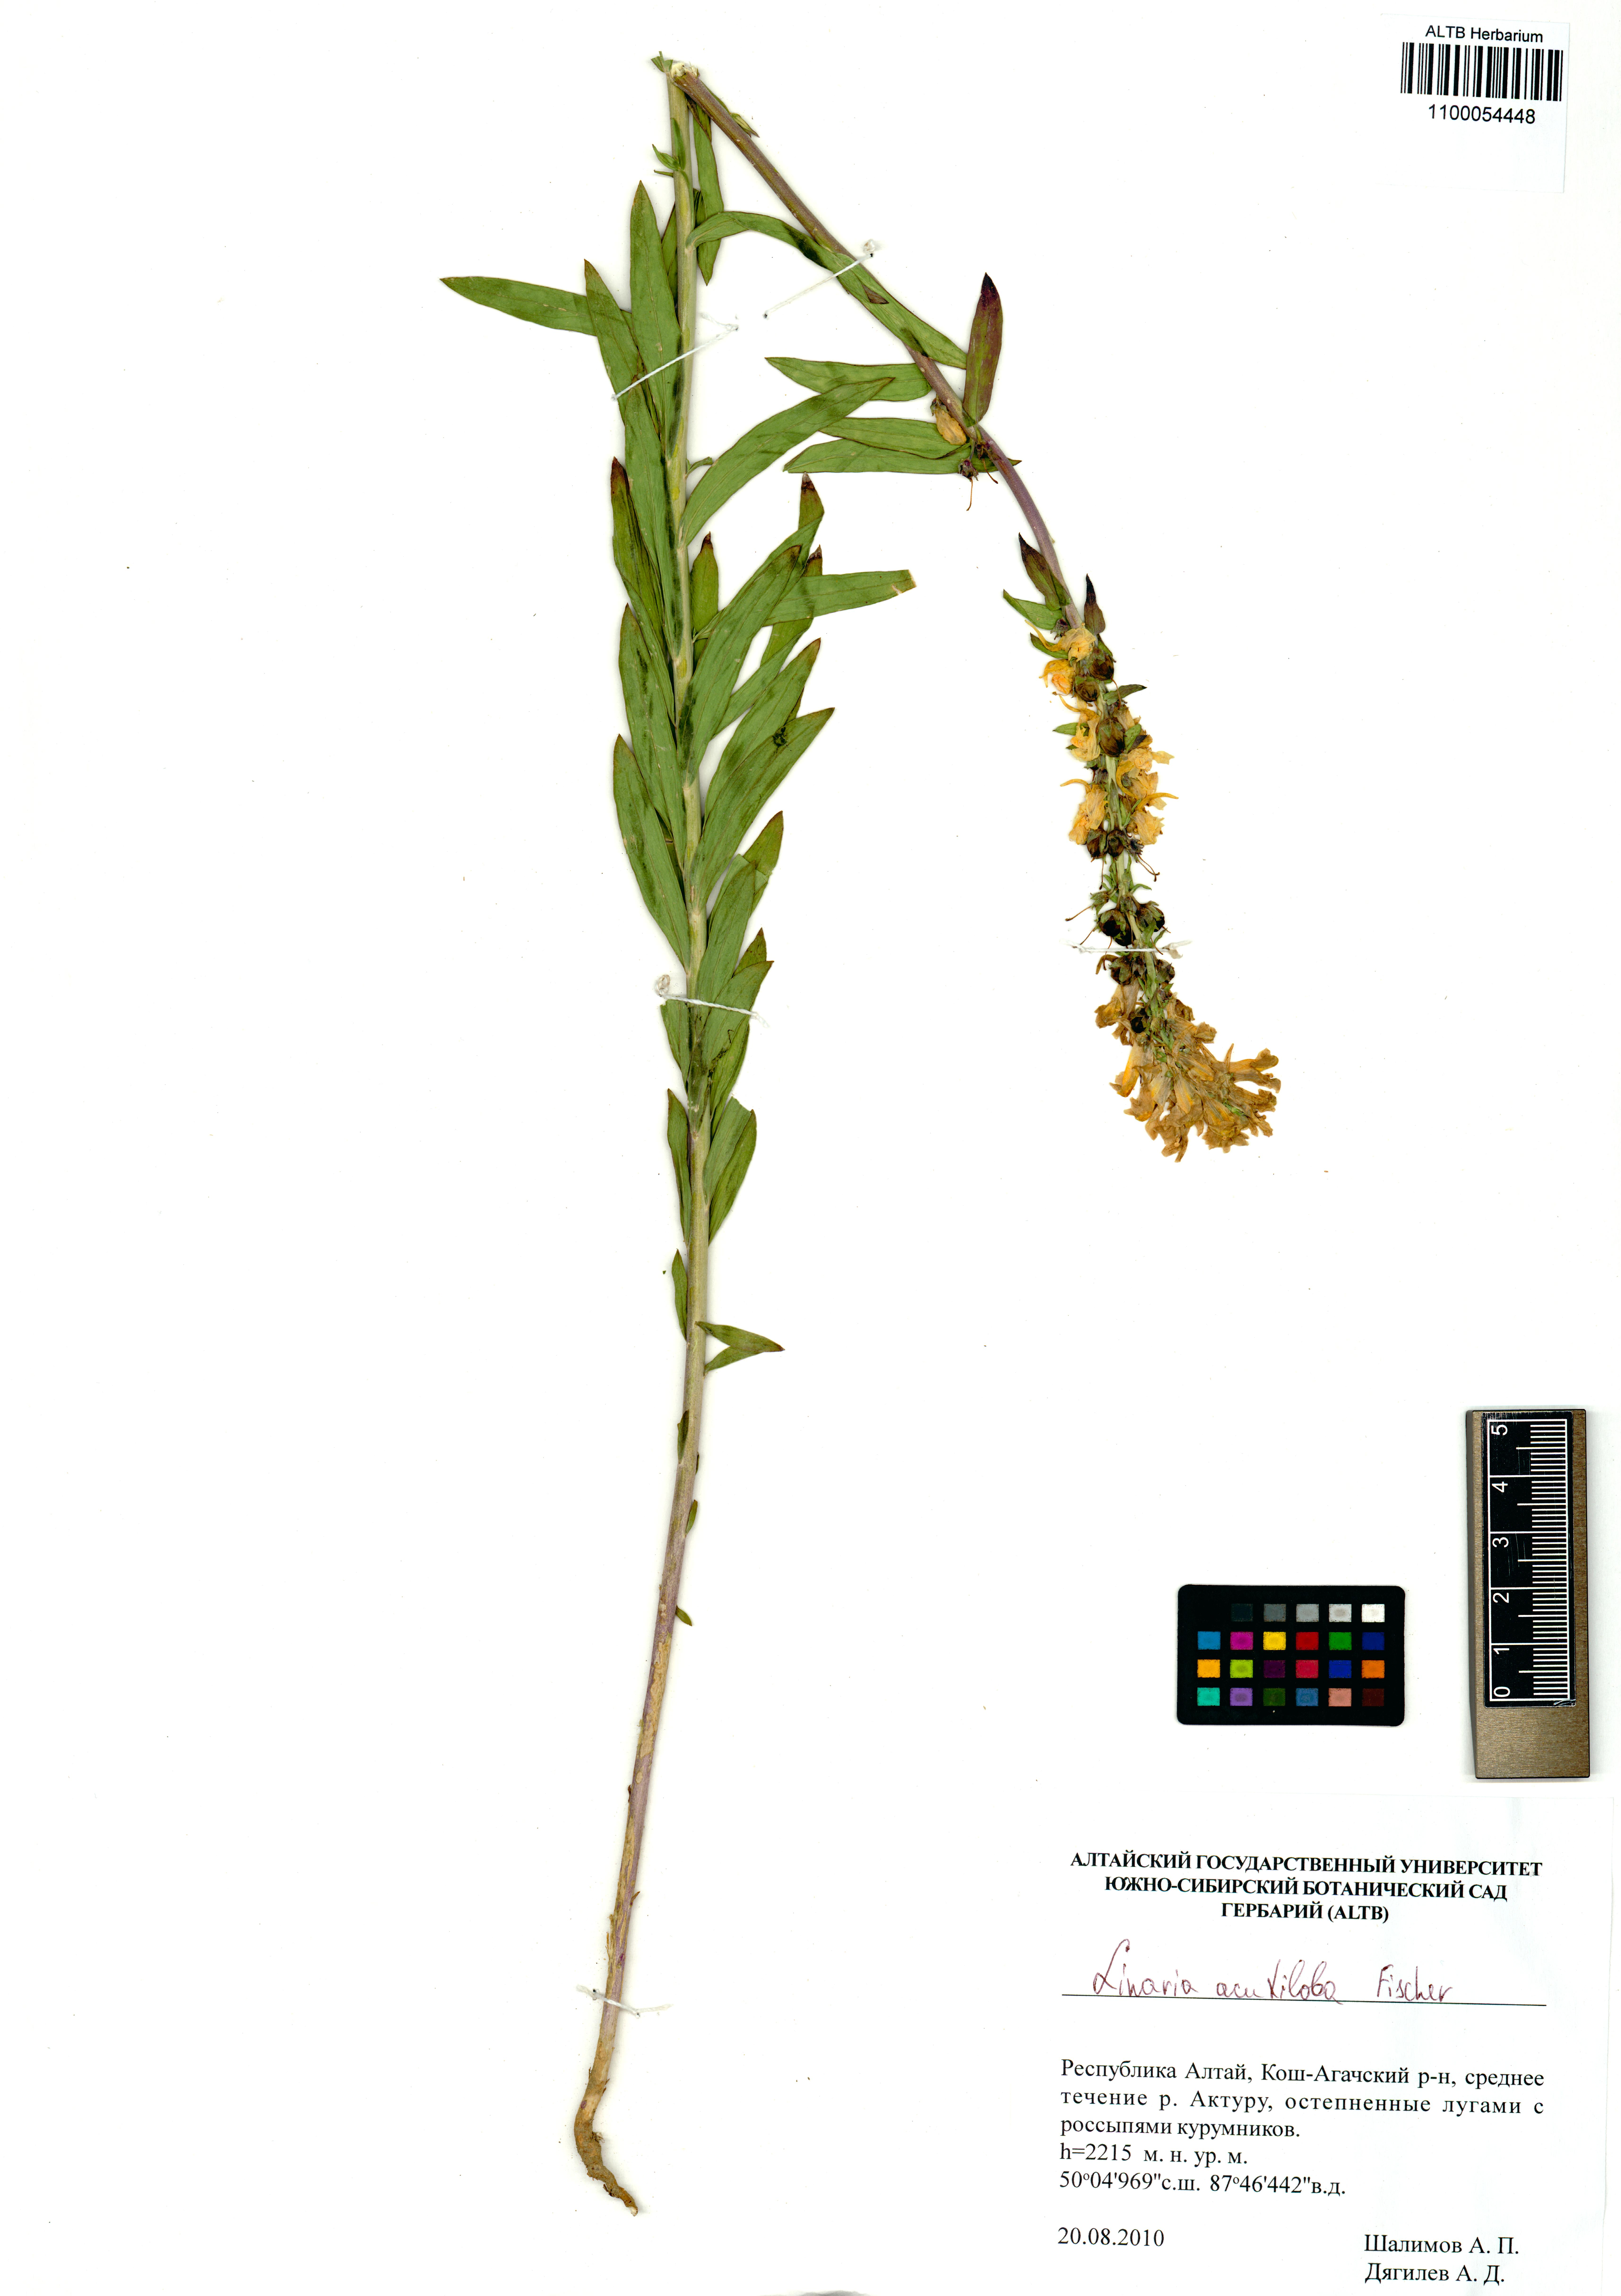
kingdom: Plantae
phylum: Tracheophyta
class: Magnoliopsida
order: Lamiales
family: Plantaginaceae
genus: Linaria
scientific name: Linaria acutiloba
